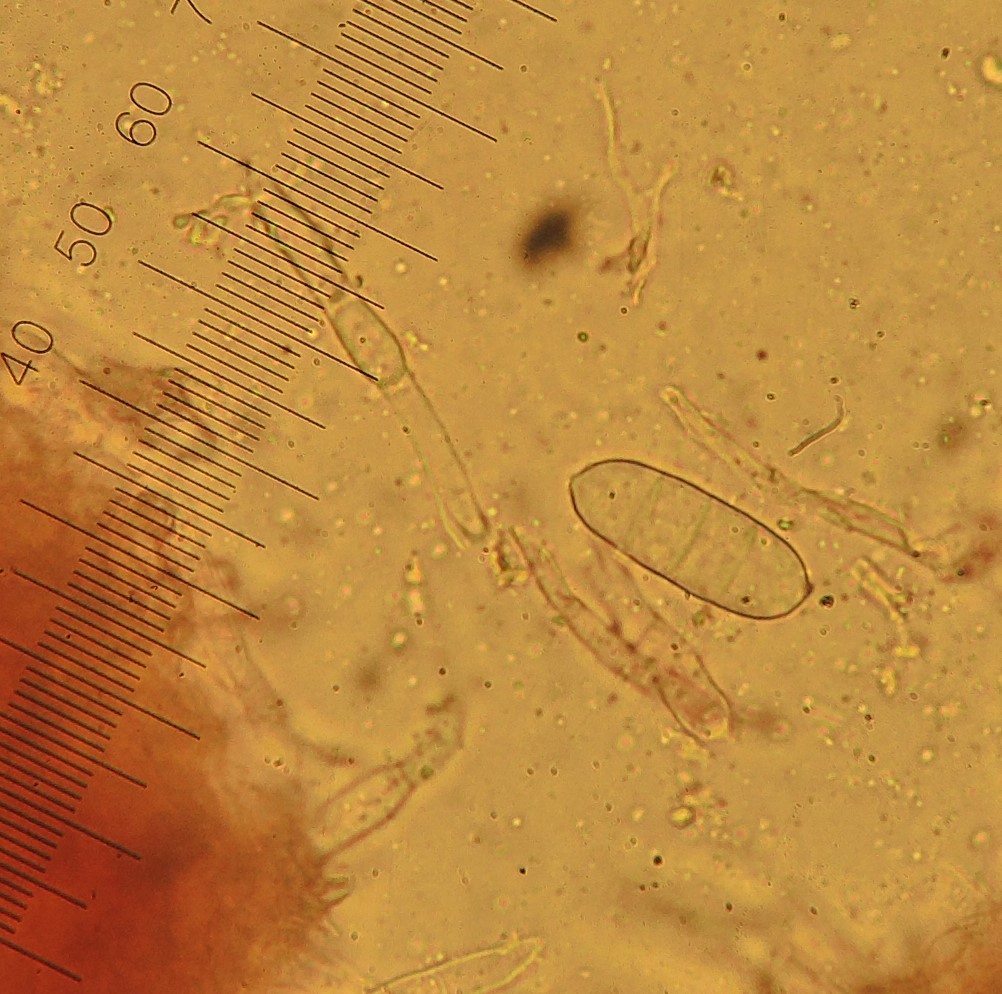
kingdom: Fungi
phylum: Ascomycota
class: Sordariomycetes
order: Hypocreales
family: Hypocreaceae
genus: Hypomyces
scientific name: Hypomyces rosellus
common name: rosa snylteskorpe
